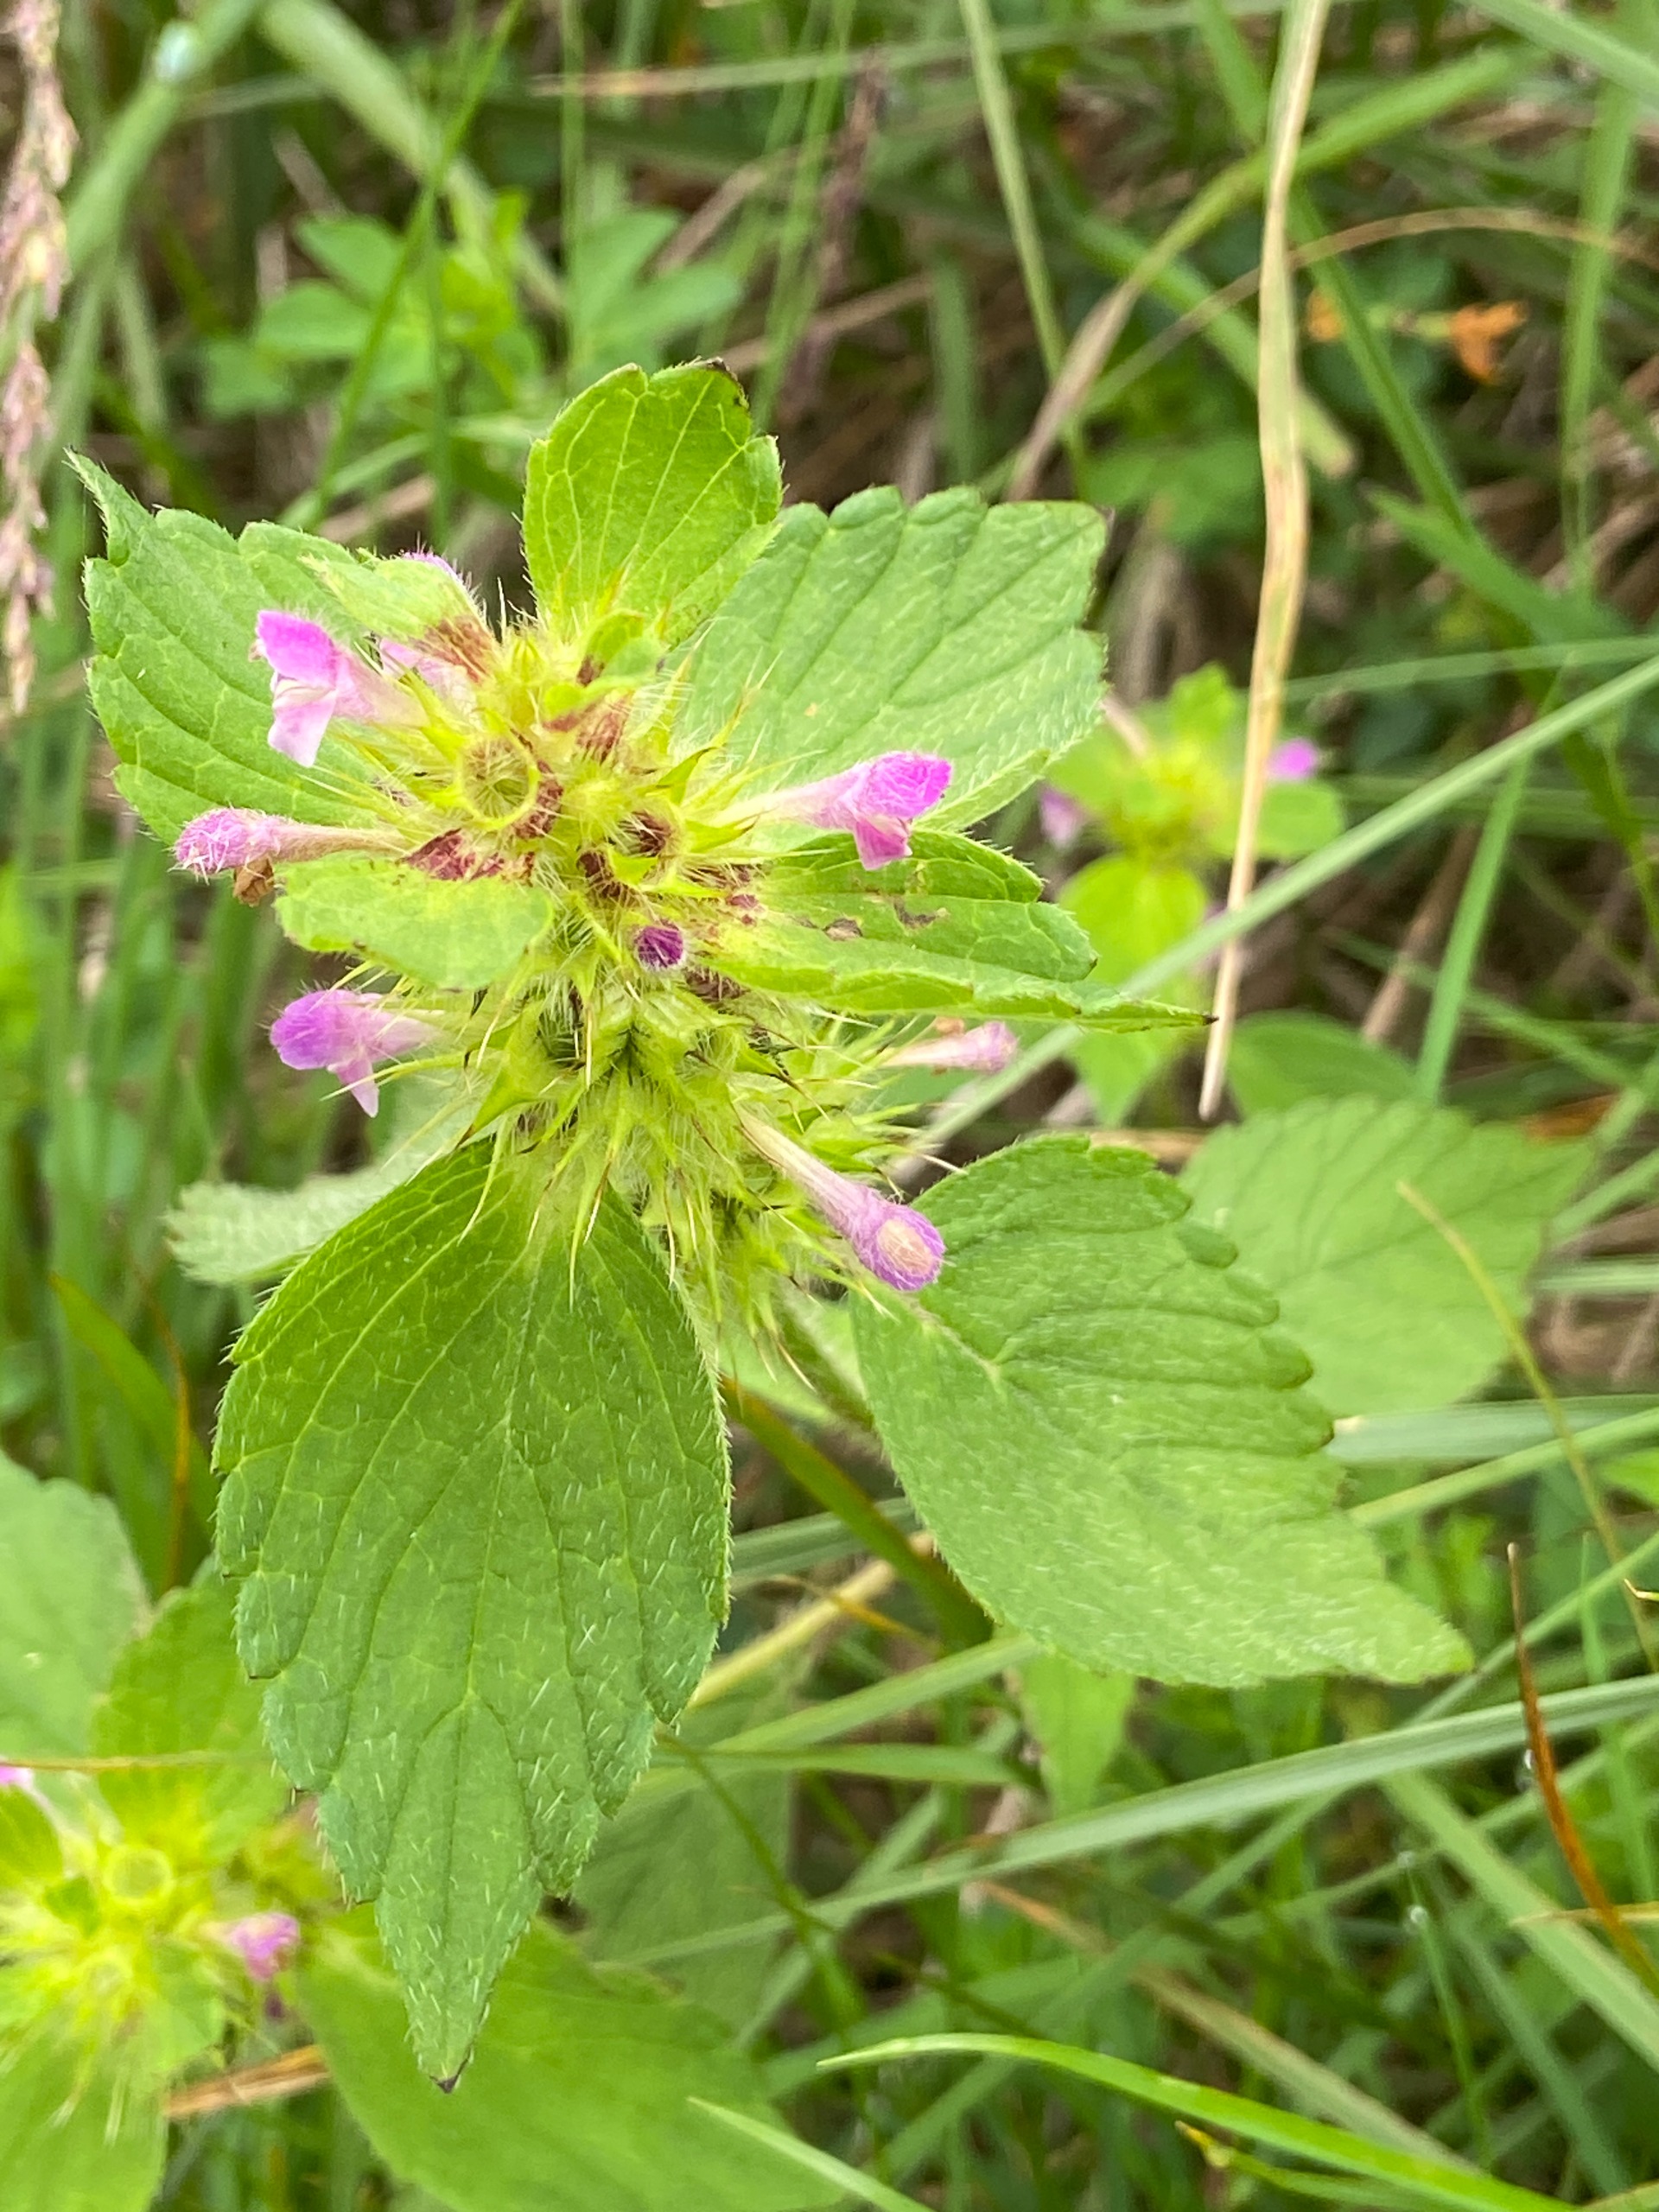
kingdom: Plantae
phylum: Tracheophyta
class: Magnoliopsida
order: Lamiales
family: Lamiaceae
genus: Galeopsis
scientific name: Galeopsis bifida
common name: Skov-hanekro
